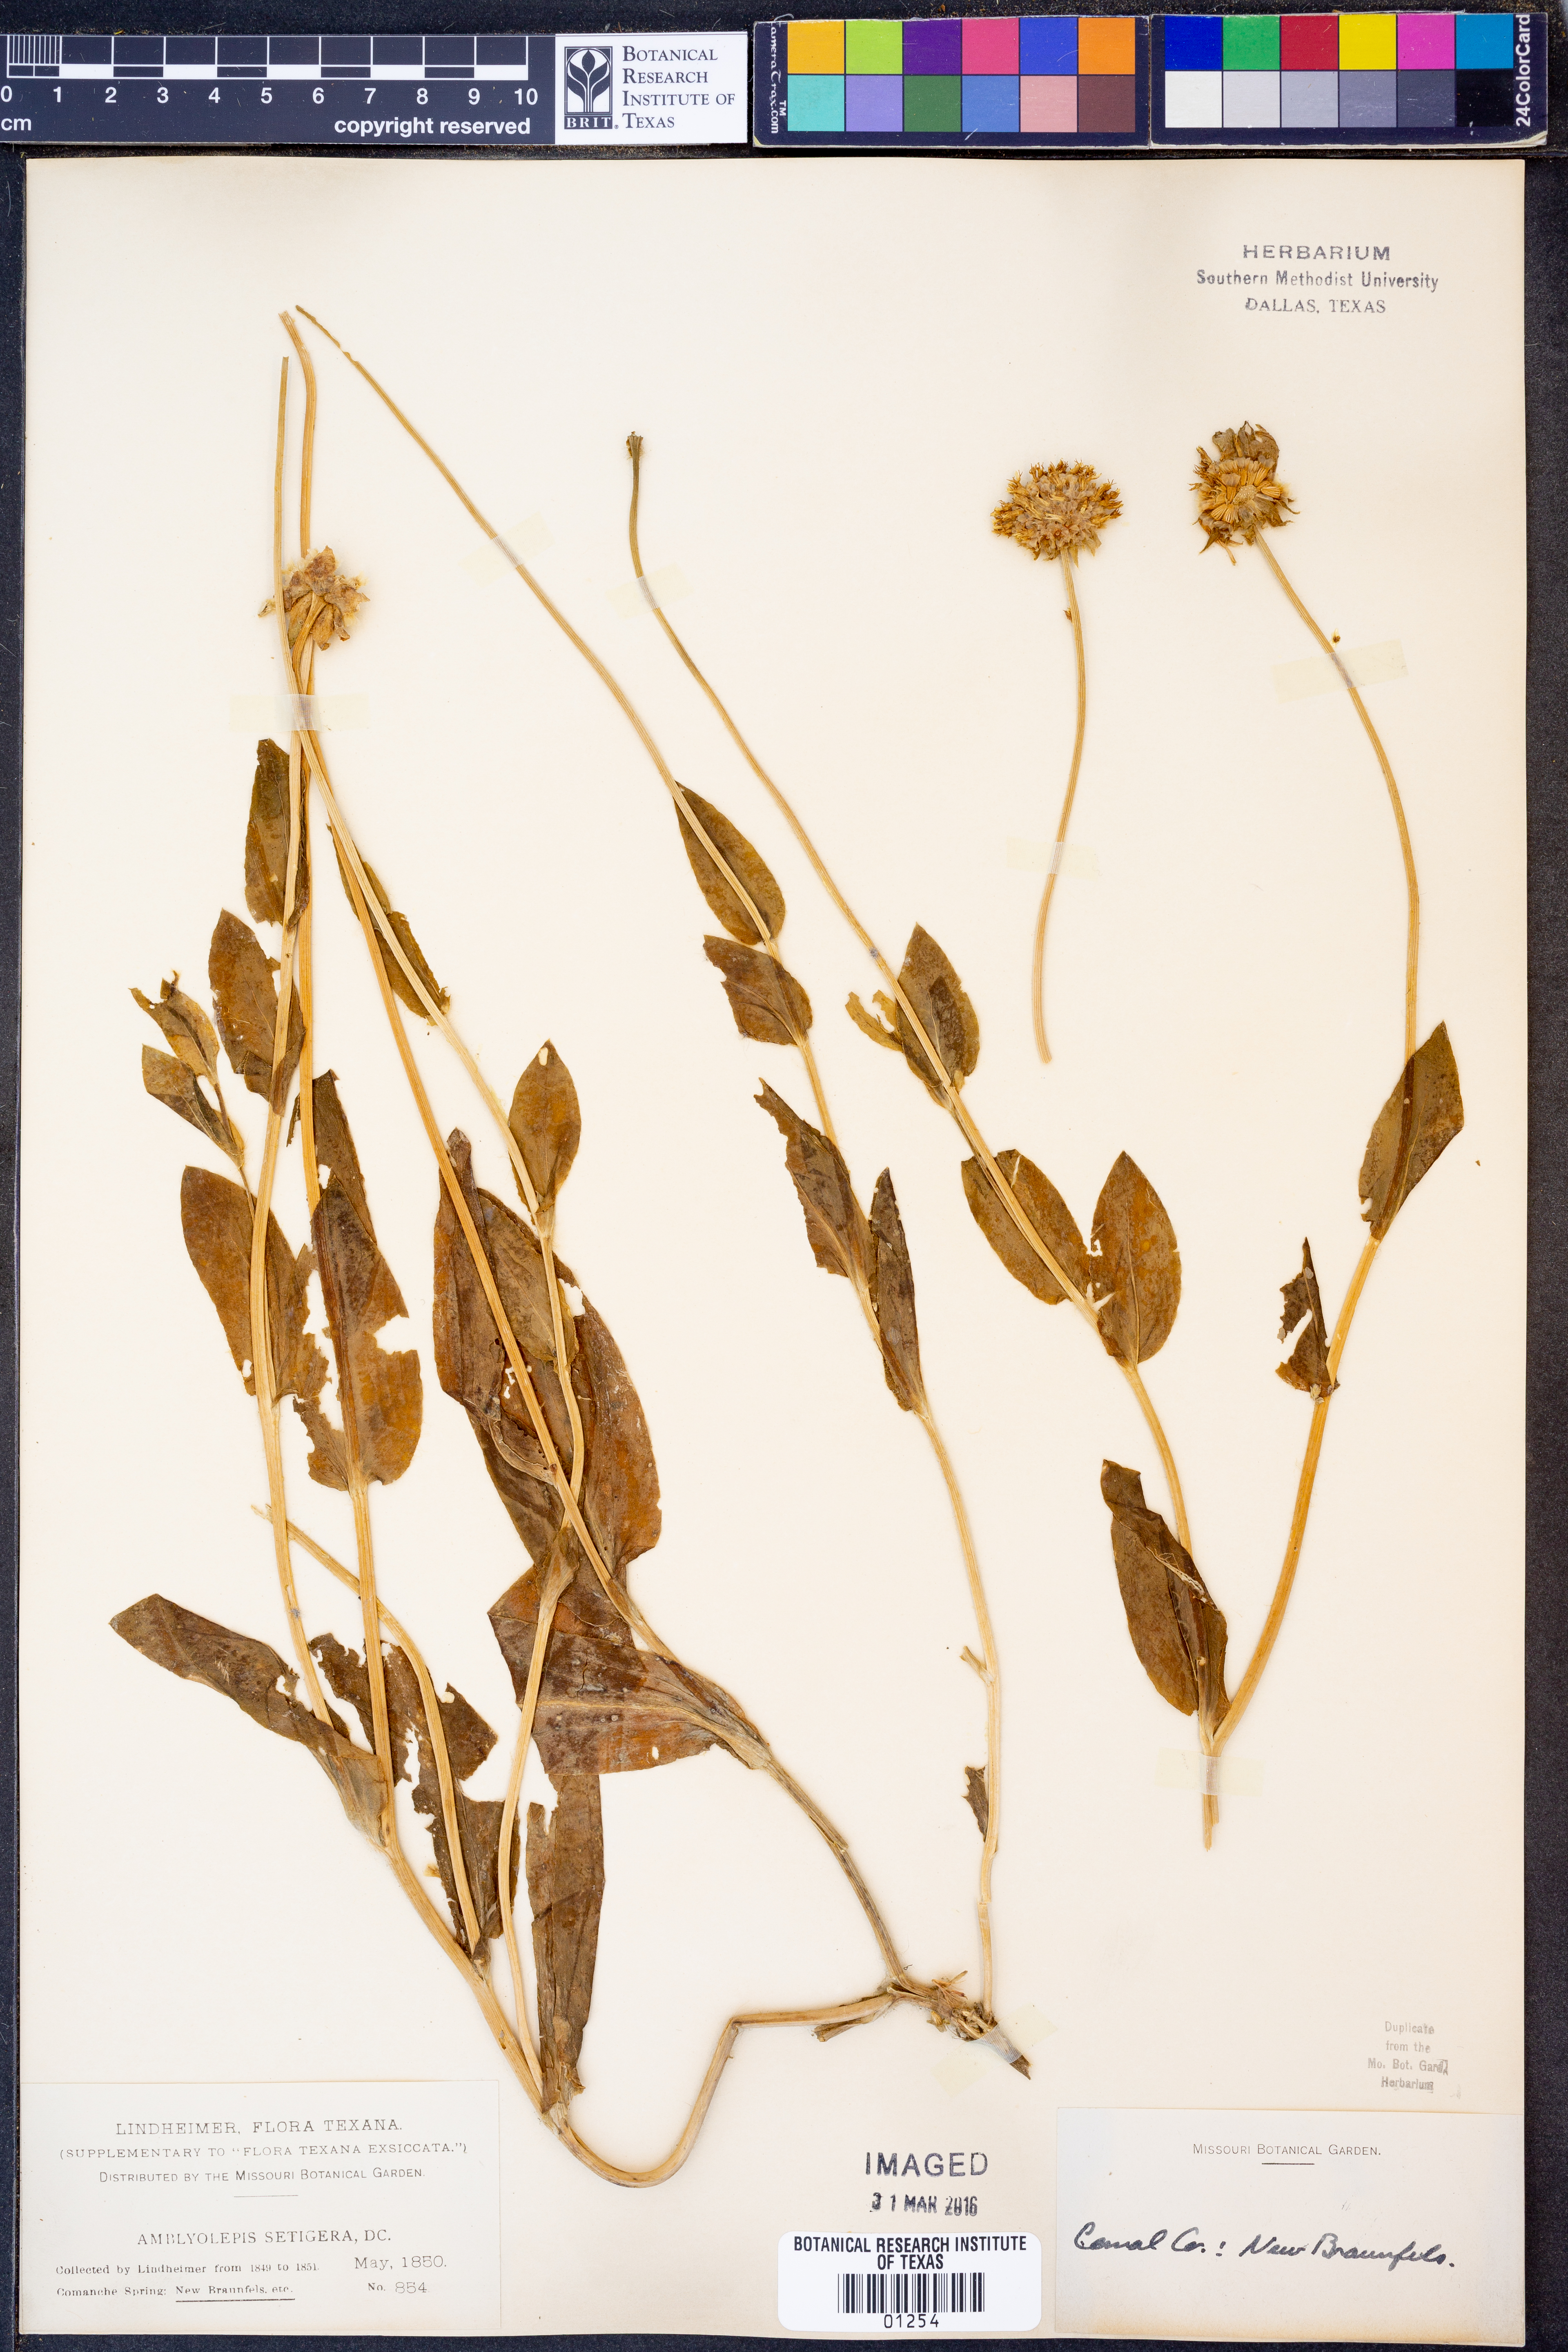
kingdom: Plantae
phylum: Tracheophyta
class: Magnoliopsida
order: Asterales
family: Asteraceae
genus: Amblyolepis
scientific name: Amblyolepis setigera
